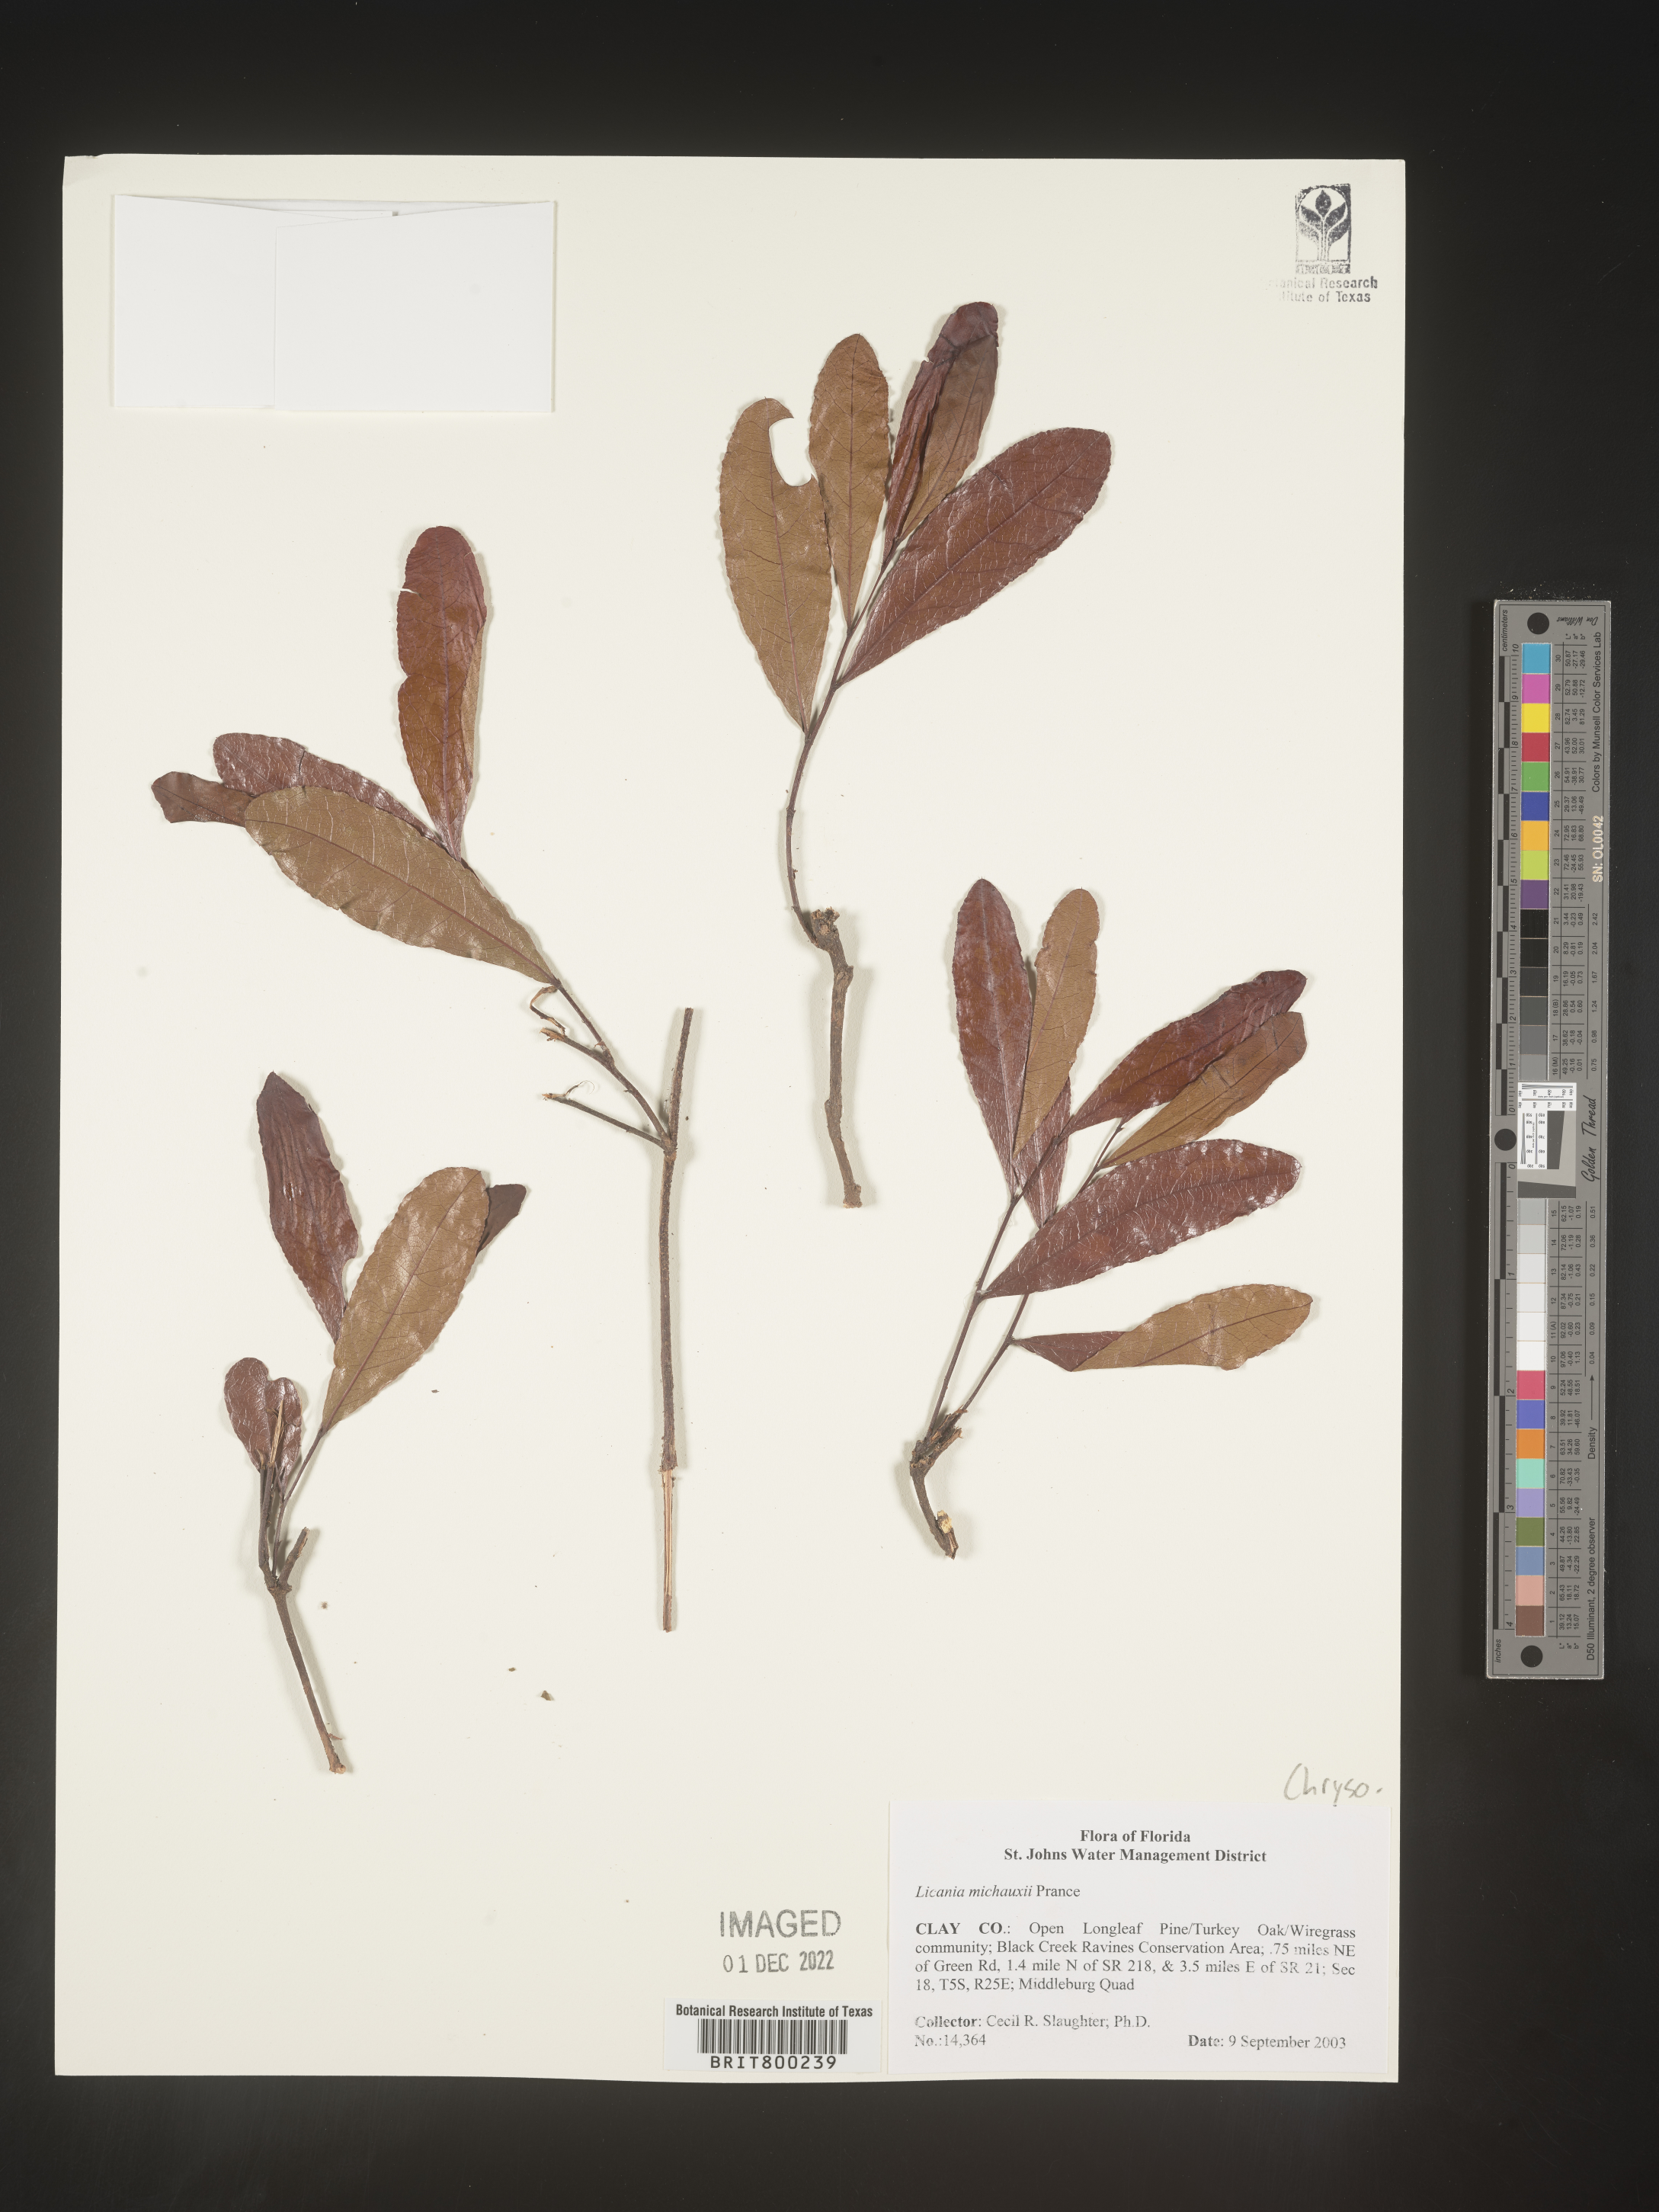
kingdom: Plantae
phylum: Tracheophyta
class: Magnoliopsida
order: Malpighiales
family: Chrysobalanaceae
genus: Geobalanus
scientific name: Geobalanus oblongifolius
